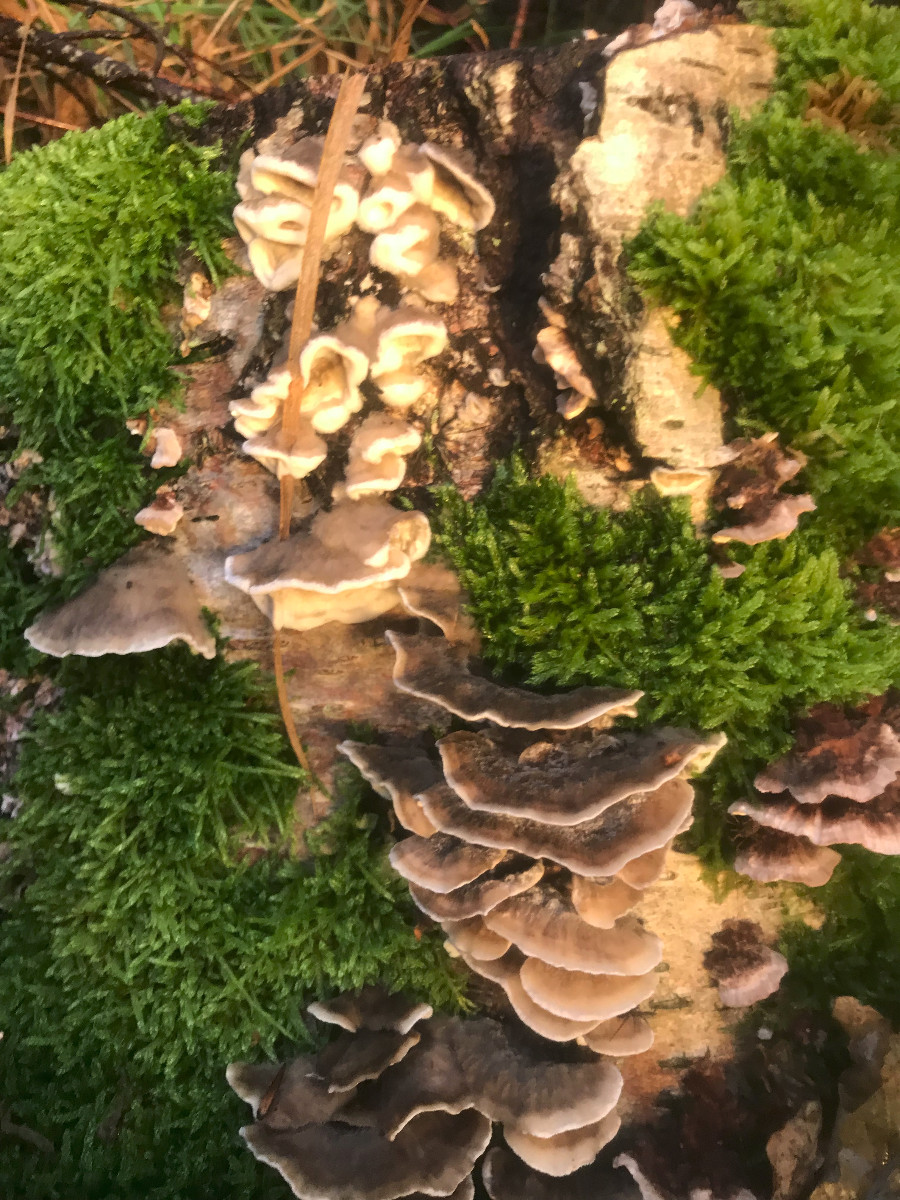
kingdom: Fungi
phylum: Basidiomycota
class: Agaricomycetes
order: Polyporales
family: Phanerochaetaceae
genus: Bjerkandera
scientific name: Bjerkandera adusta
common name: sveden sodporesvamp
